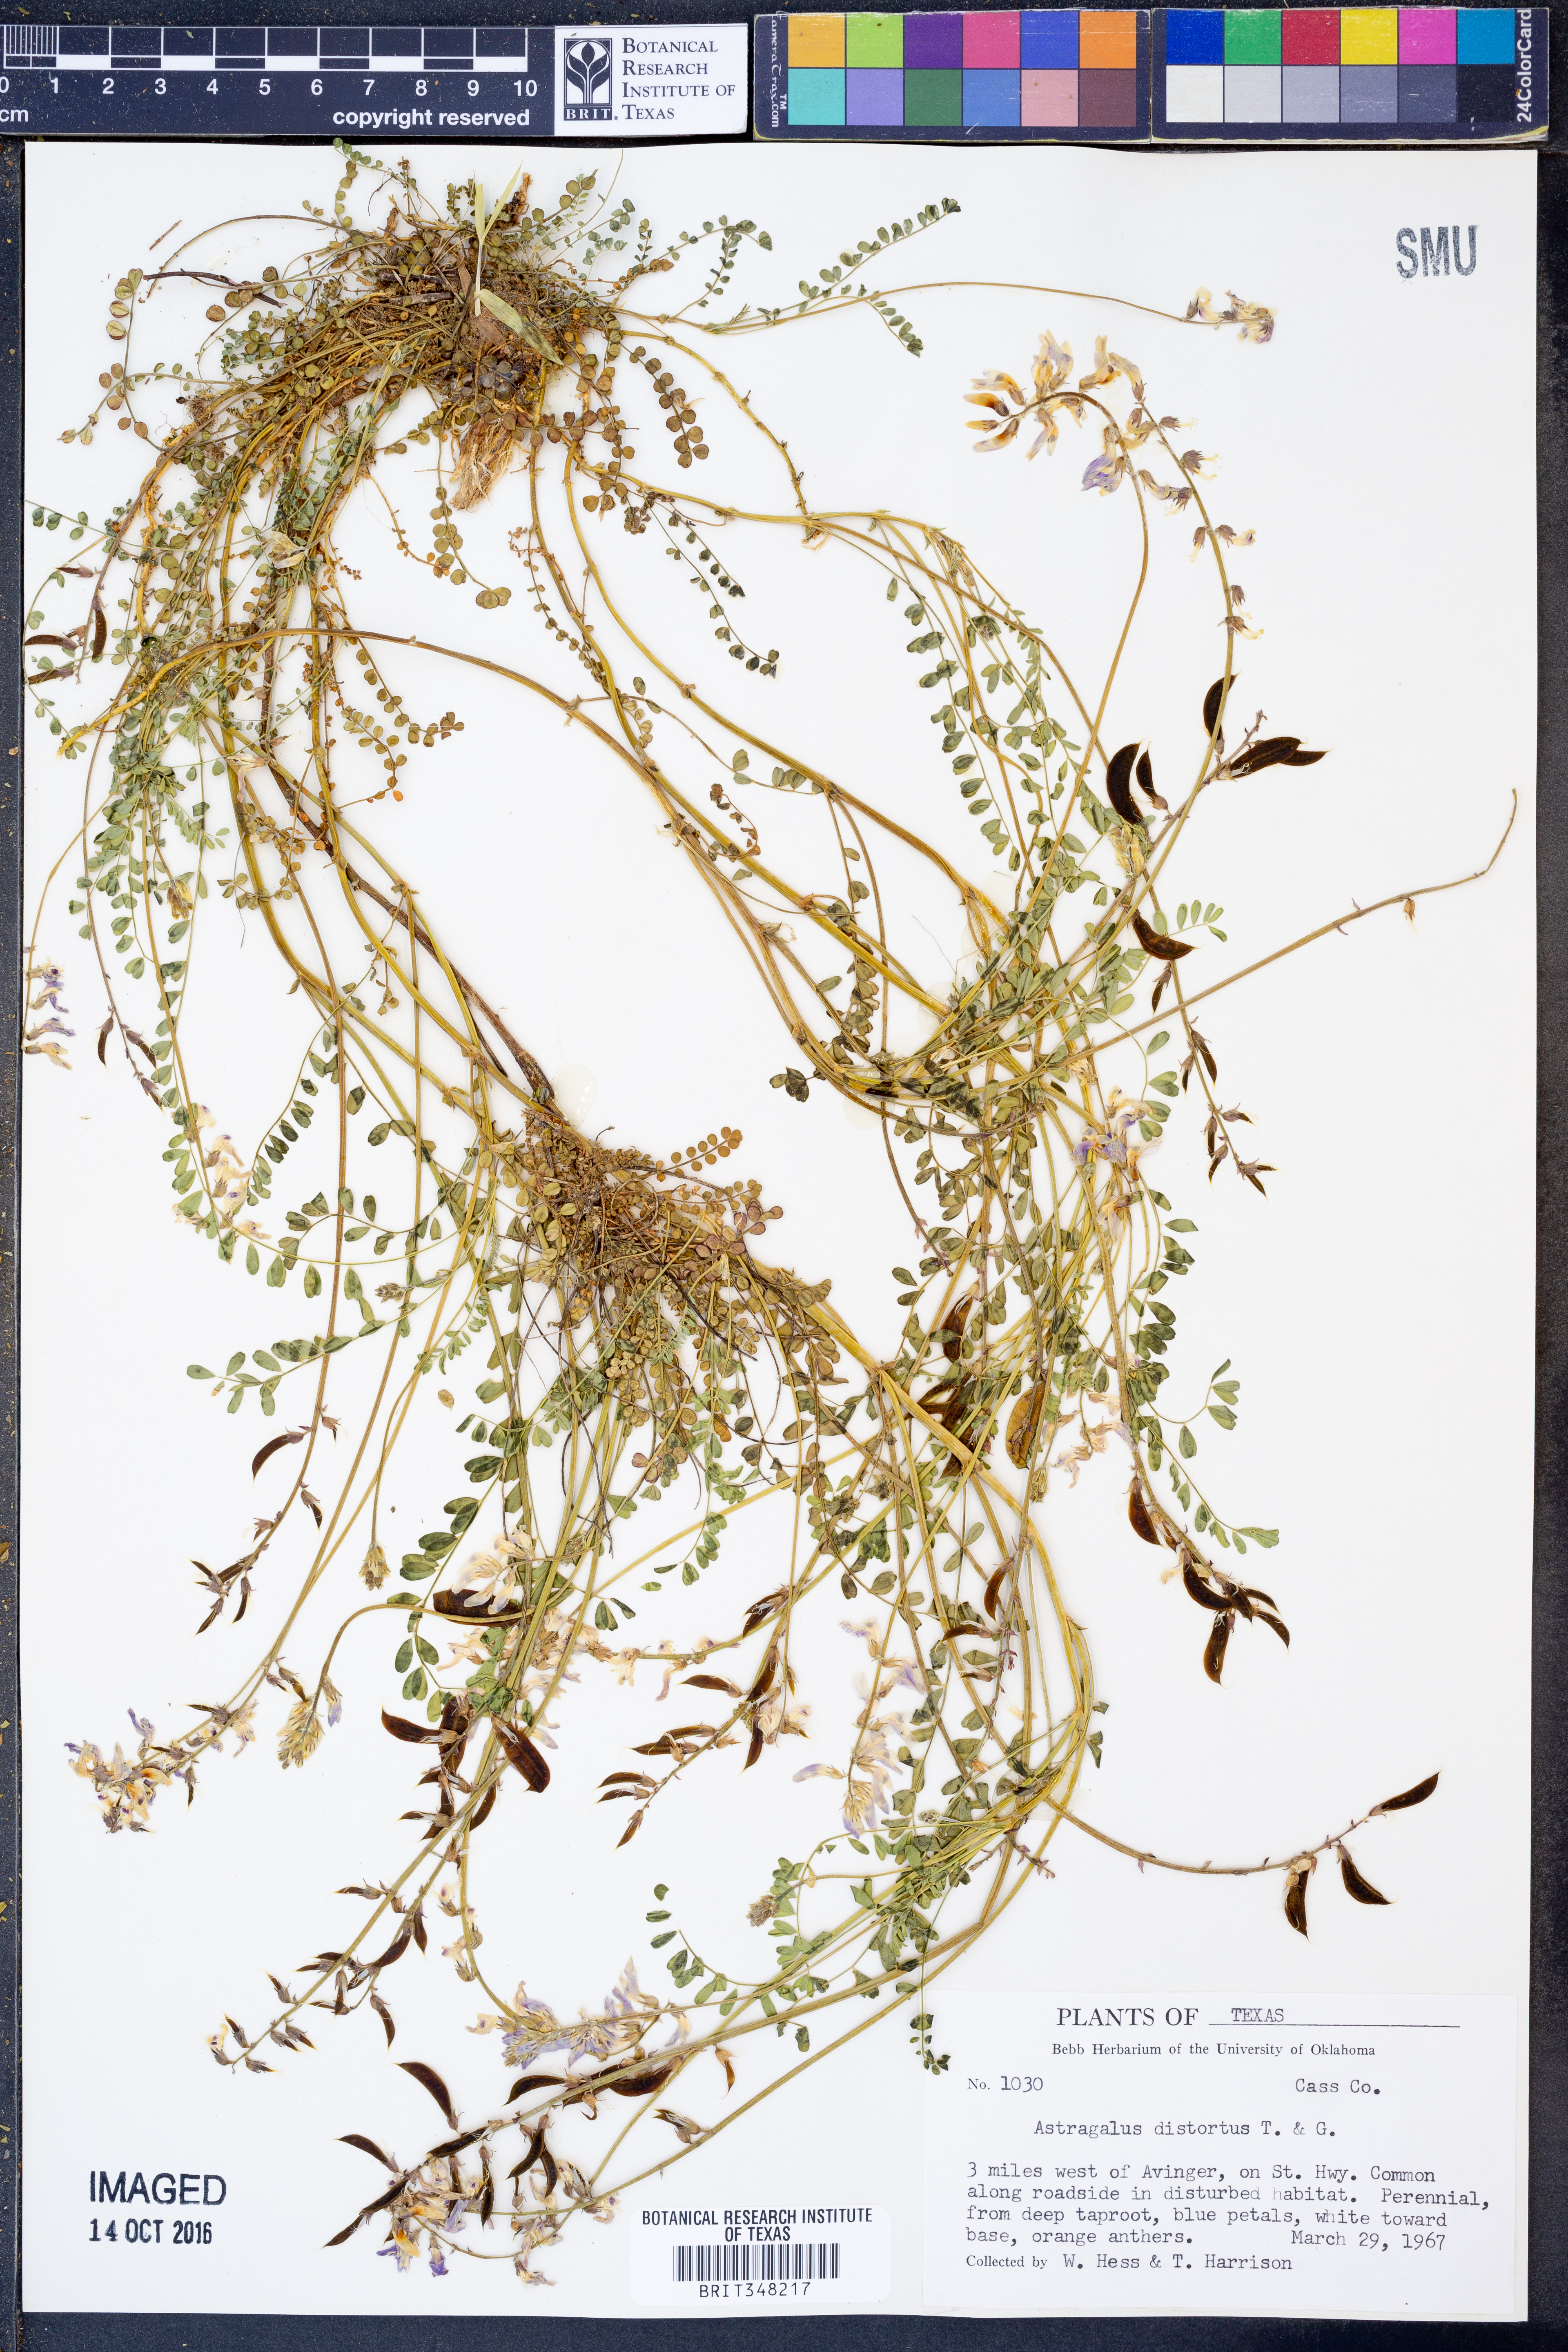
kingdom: Plantae
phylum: Tracheophyta
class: Magnoliopsida
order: Fabales
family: Fabaceae
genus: Astragalus
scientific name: Astragalus distortus
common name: Ozark milk-vetch
